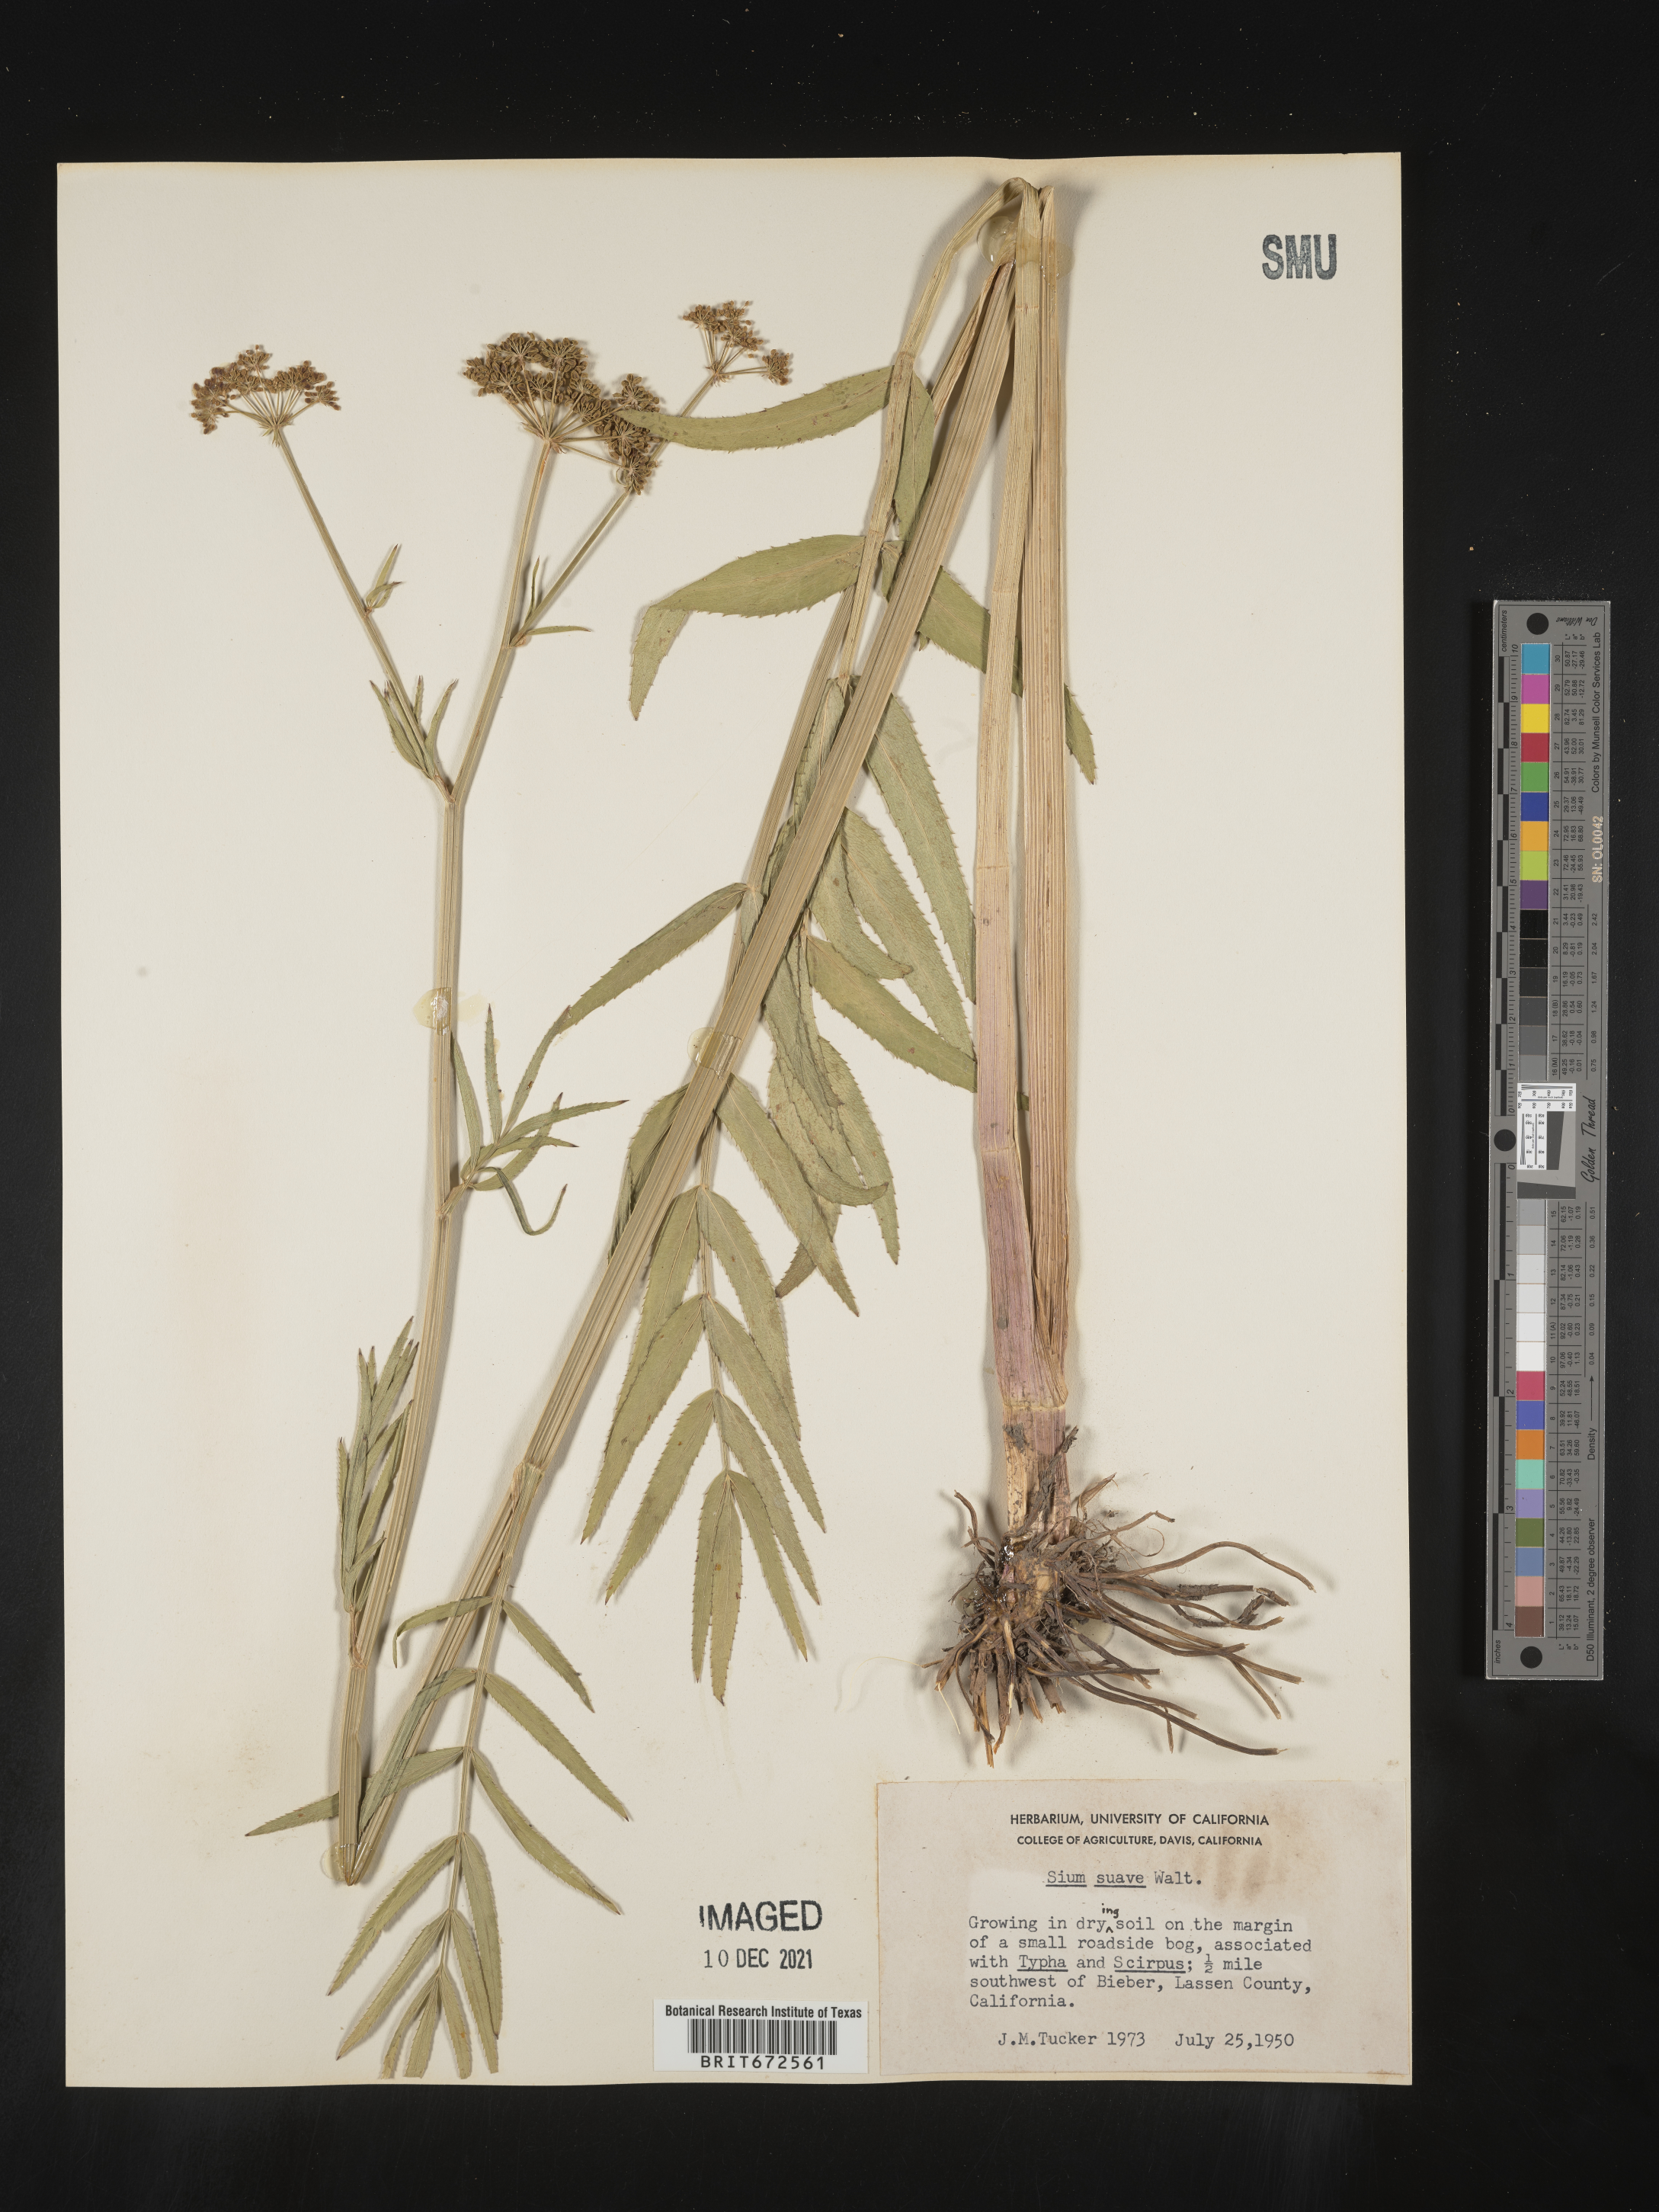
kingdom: Plantae
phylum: Tracheophyta
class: Magnoliopsida
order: Apiales
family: Apiaceae
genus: Sium
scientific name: Sium suave
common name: Hemlock water-parsnip
